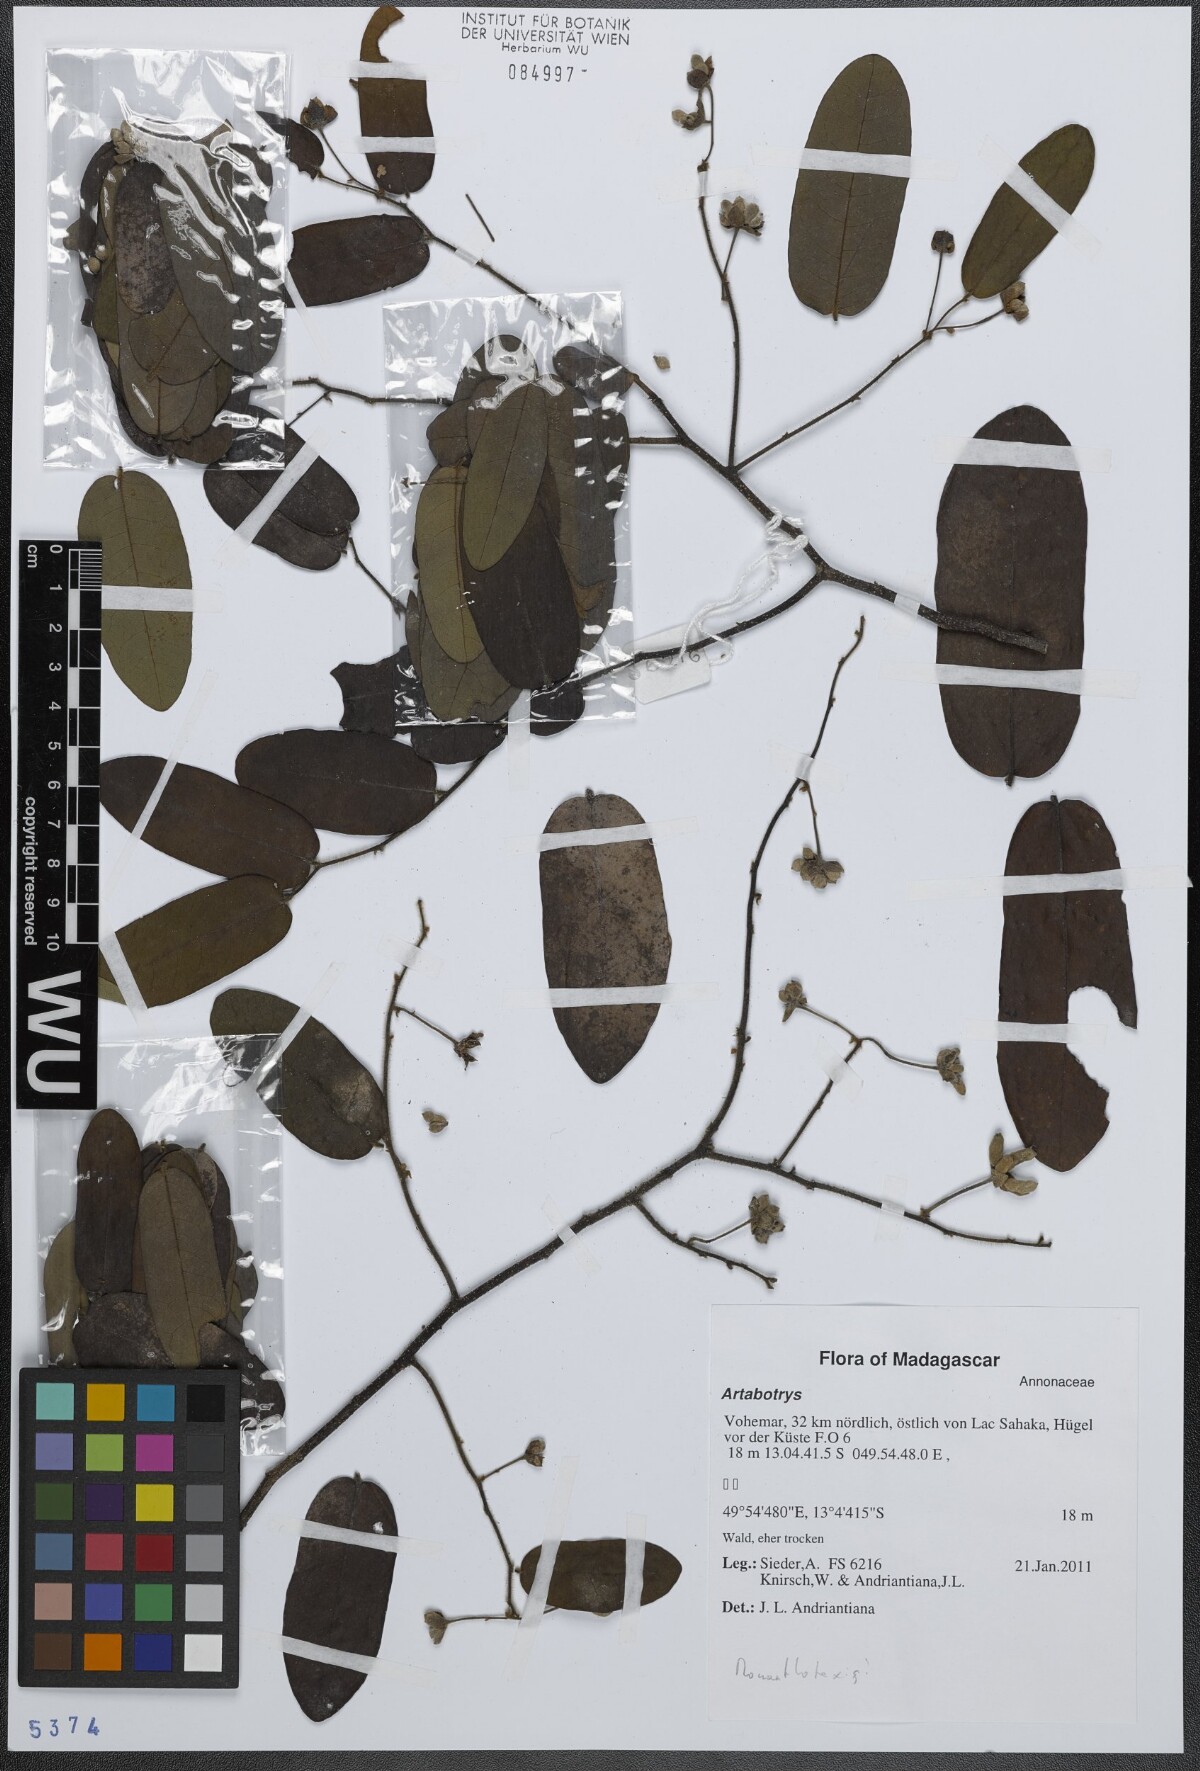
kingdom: Plantae
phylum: Tracheophyta
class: Magnoliopsida
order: Magnoliales
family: Annonaceae
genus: Artabotrys
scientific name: Artabotrys
